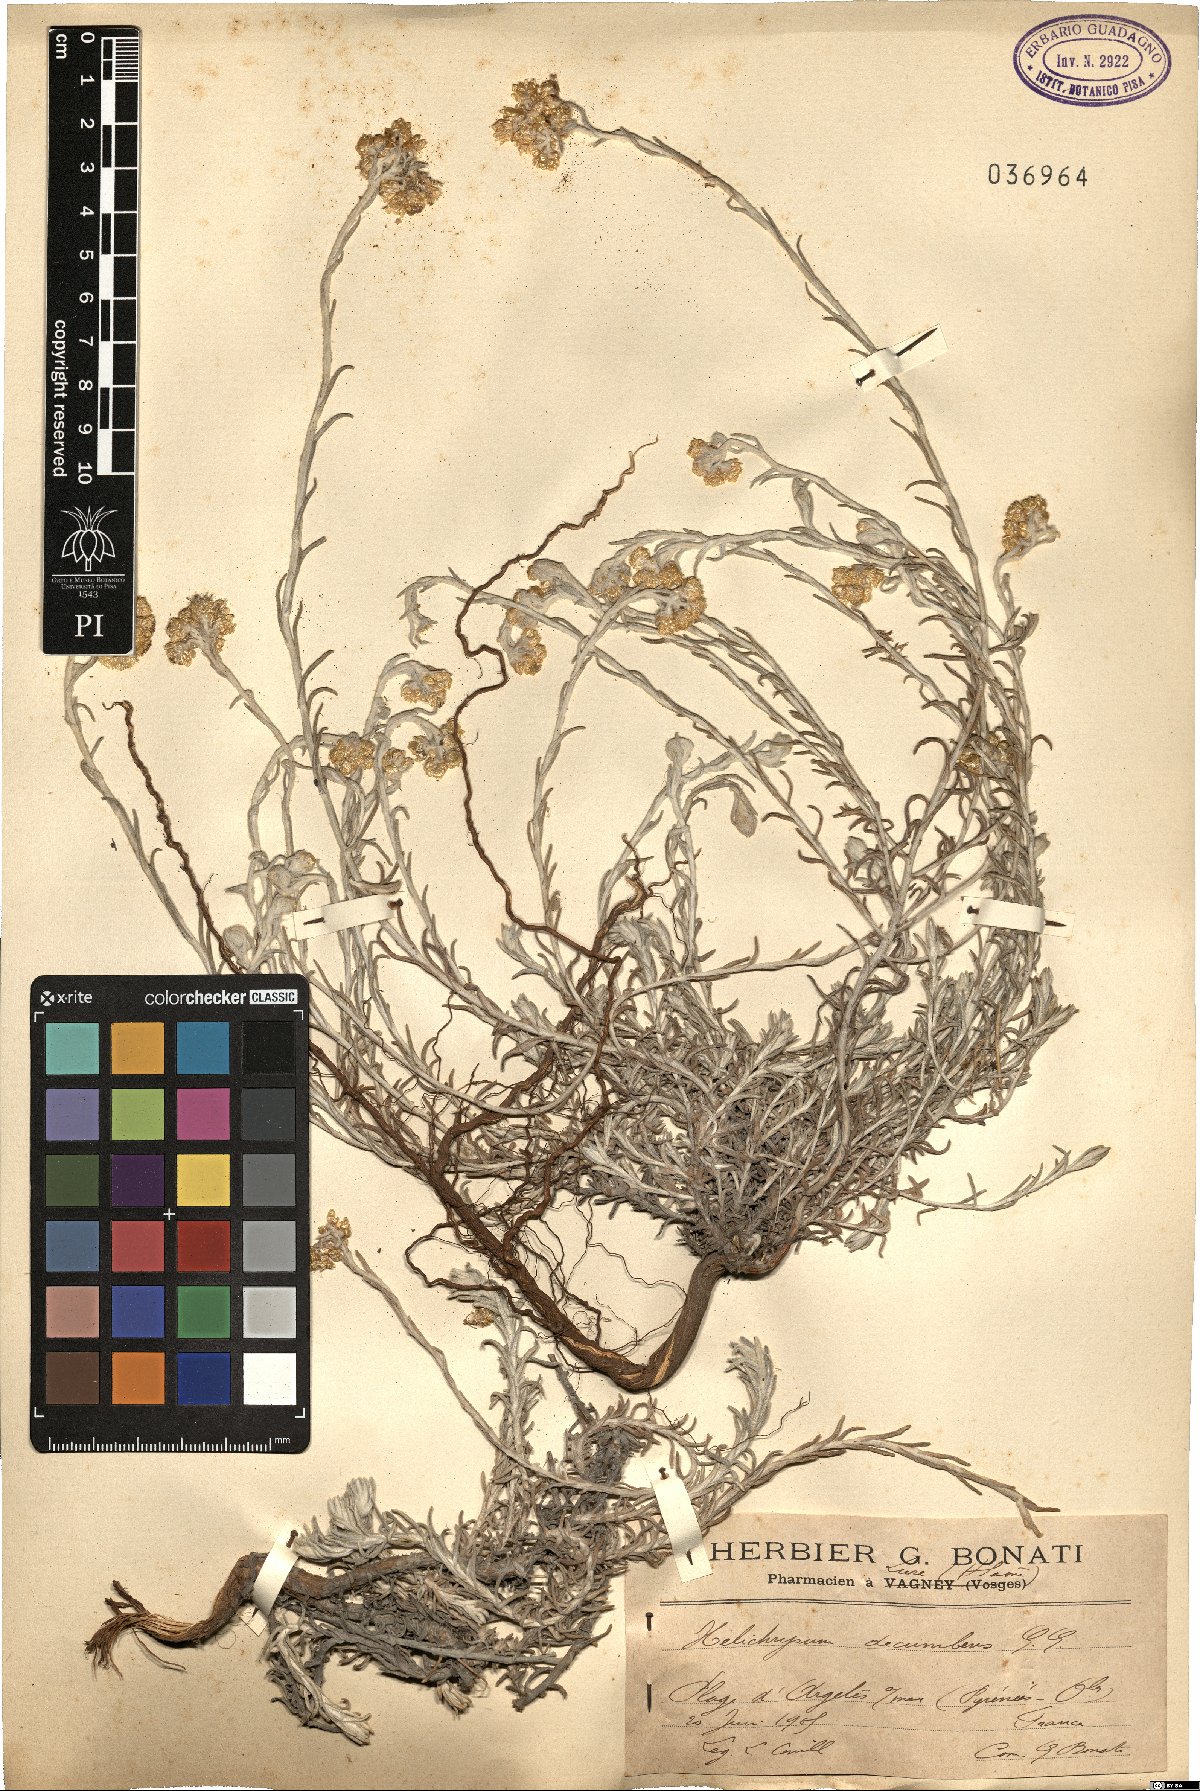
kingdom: Plantae
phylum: Tracheophyta
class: Magnoliopsida
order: Asterales
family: Asteraceae
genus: Helichrysum
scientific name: Helichrysum stoechas
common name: Goldilocks
